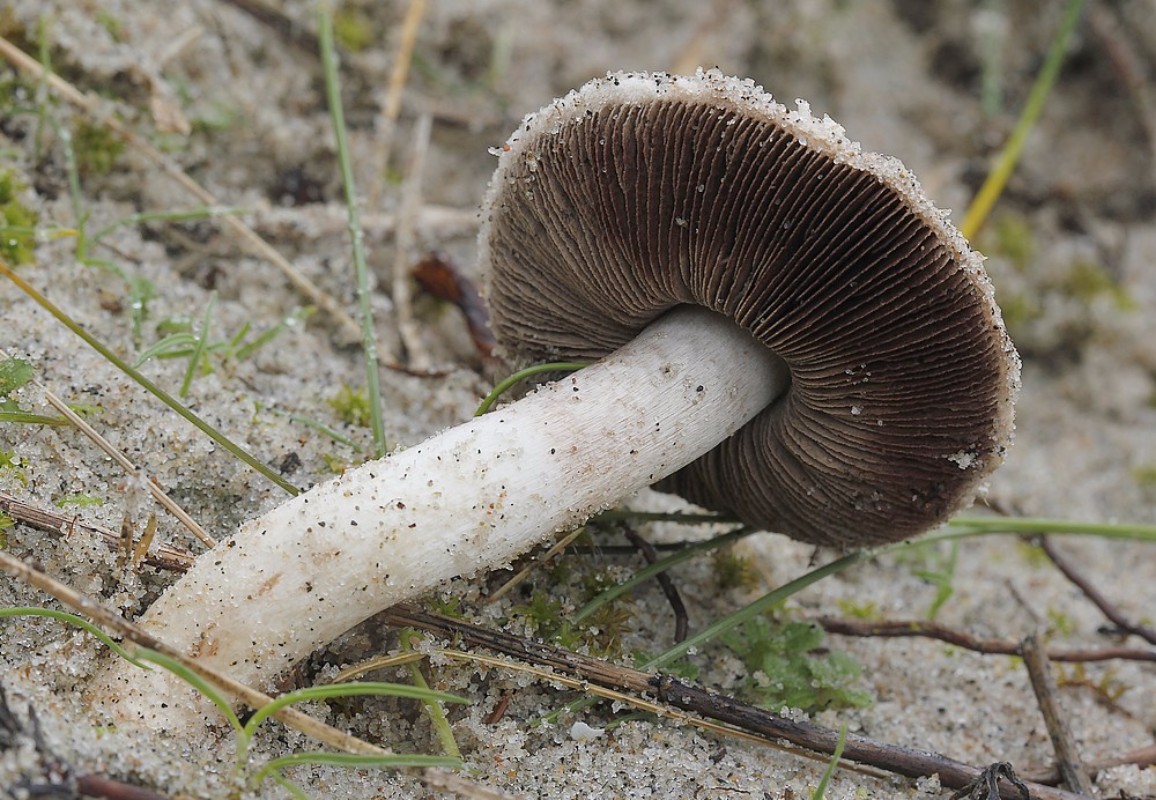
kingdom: Fungi
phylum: Basidiomycota
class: Agaricomycetes
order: Agaricales
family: Agaricaceae
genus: Agaricus
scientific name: Agaricus
